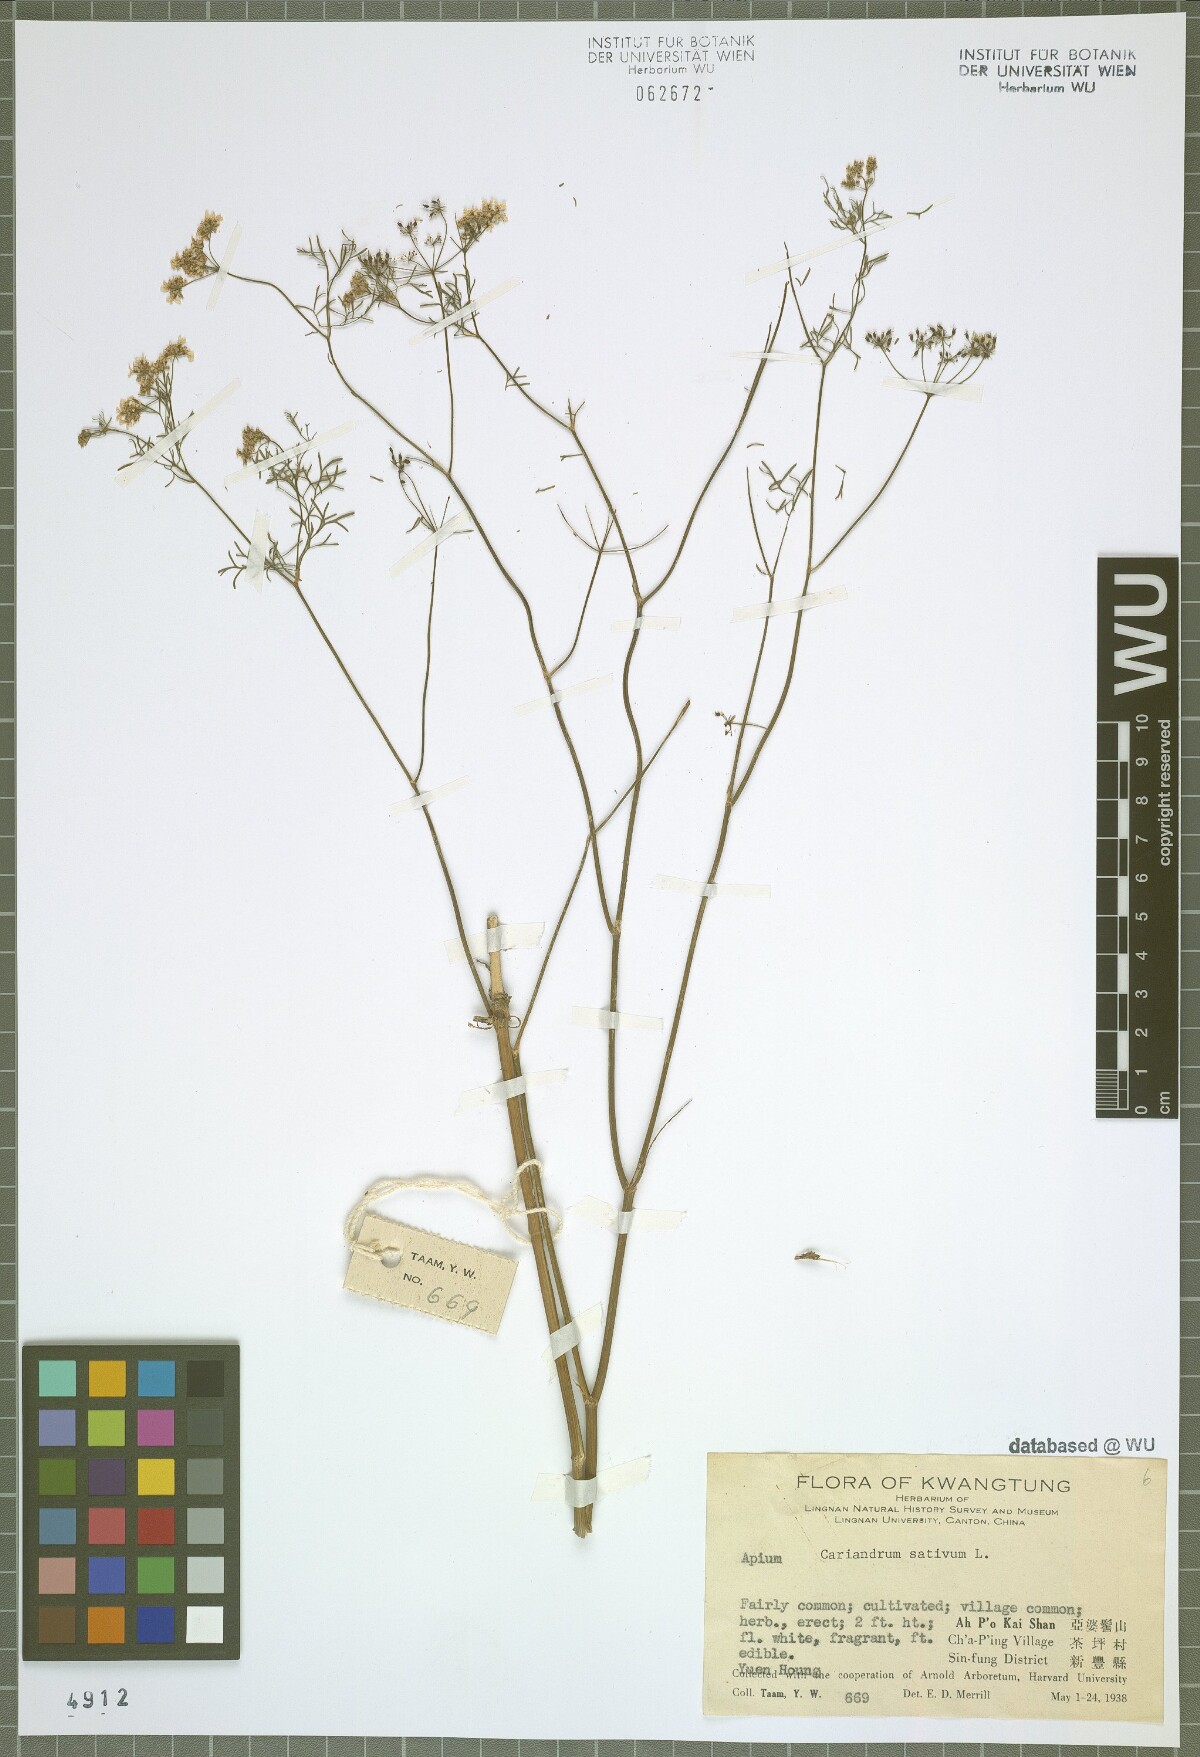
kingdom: Plantae
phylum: Tracheophyta
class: Magnoliopsida
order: Apiales
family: Apiaceae
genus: Coriandrum
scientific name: Coriandrum sativum
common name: Coriander
